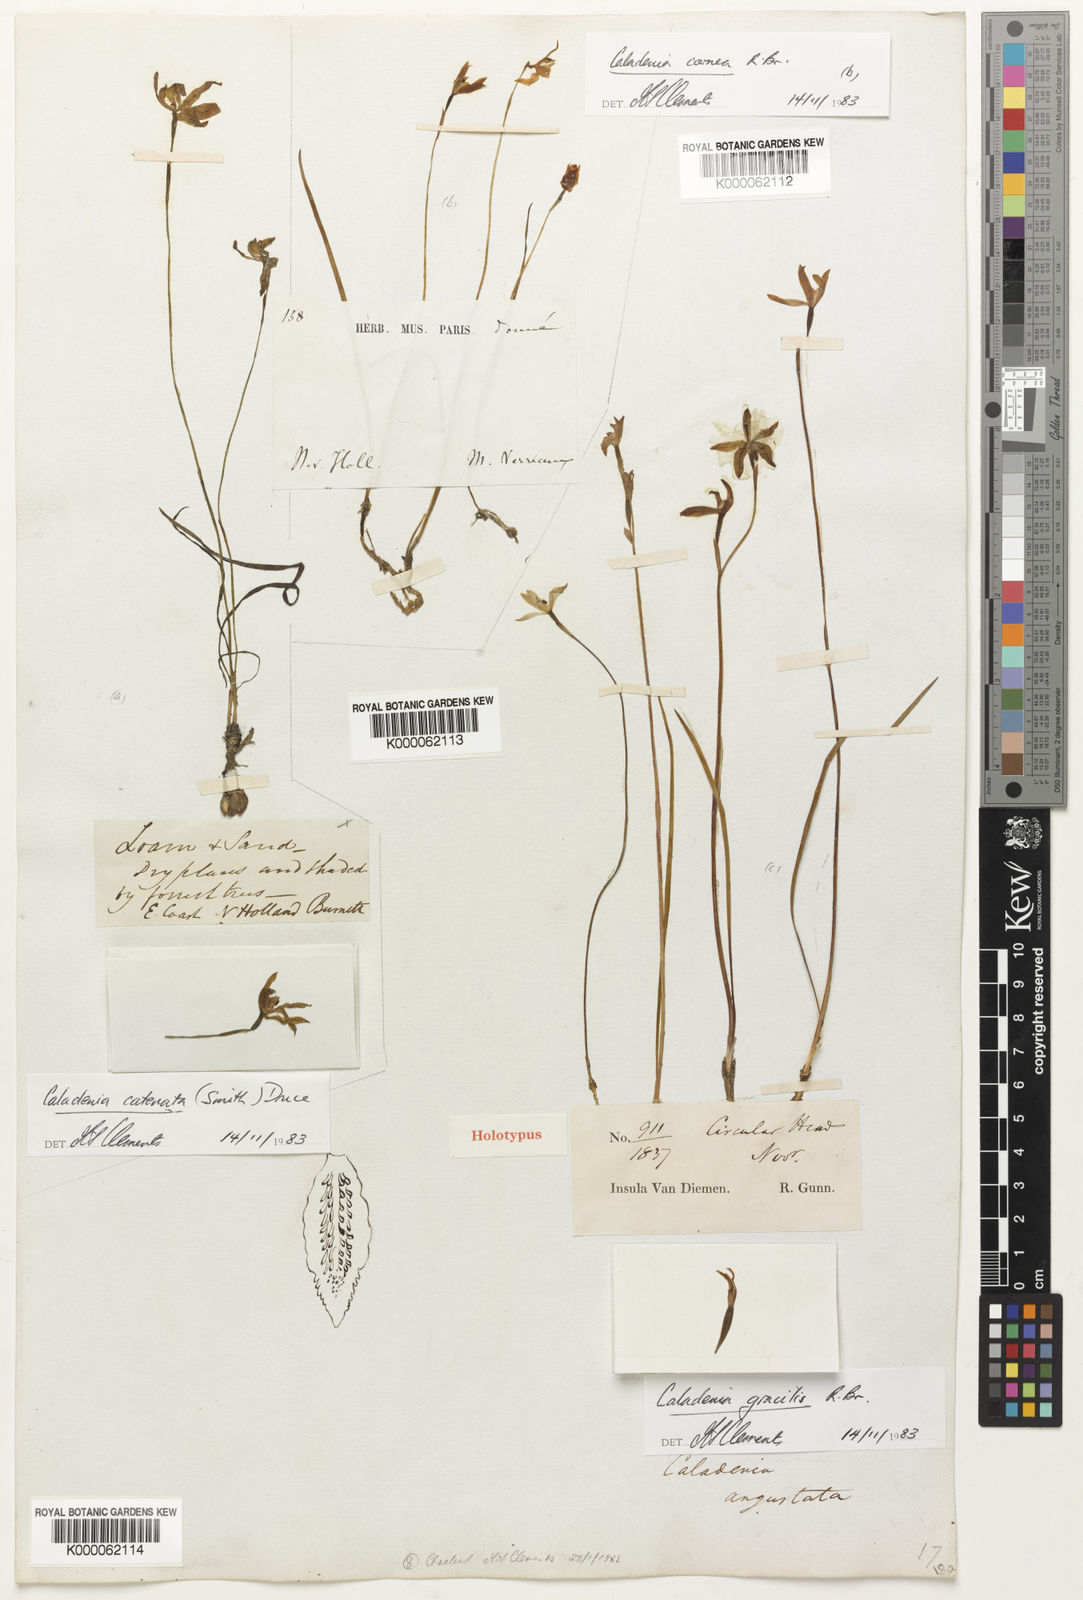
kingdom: Plantae
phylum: Tracheophyta
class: Liliopsida
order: Asparagales
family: Orchidaceae
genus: Caladenia
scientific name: Caladenia angustata
